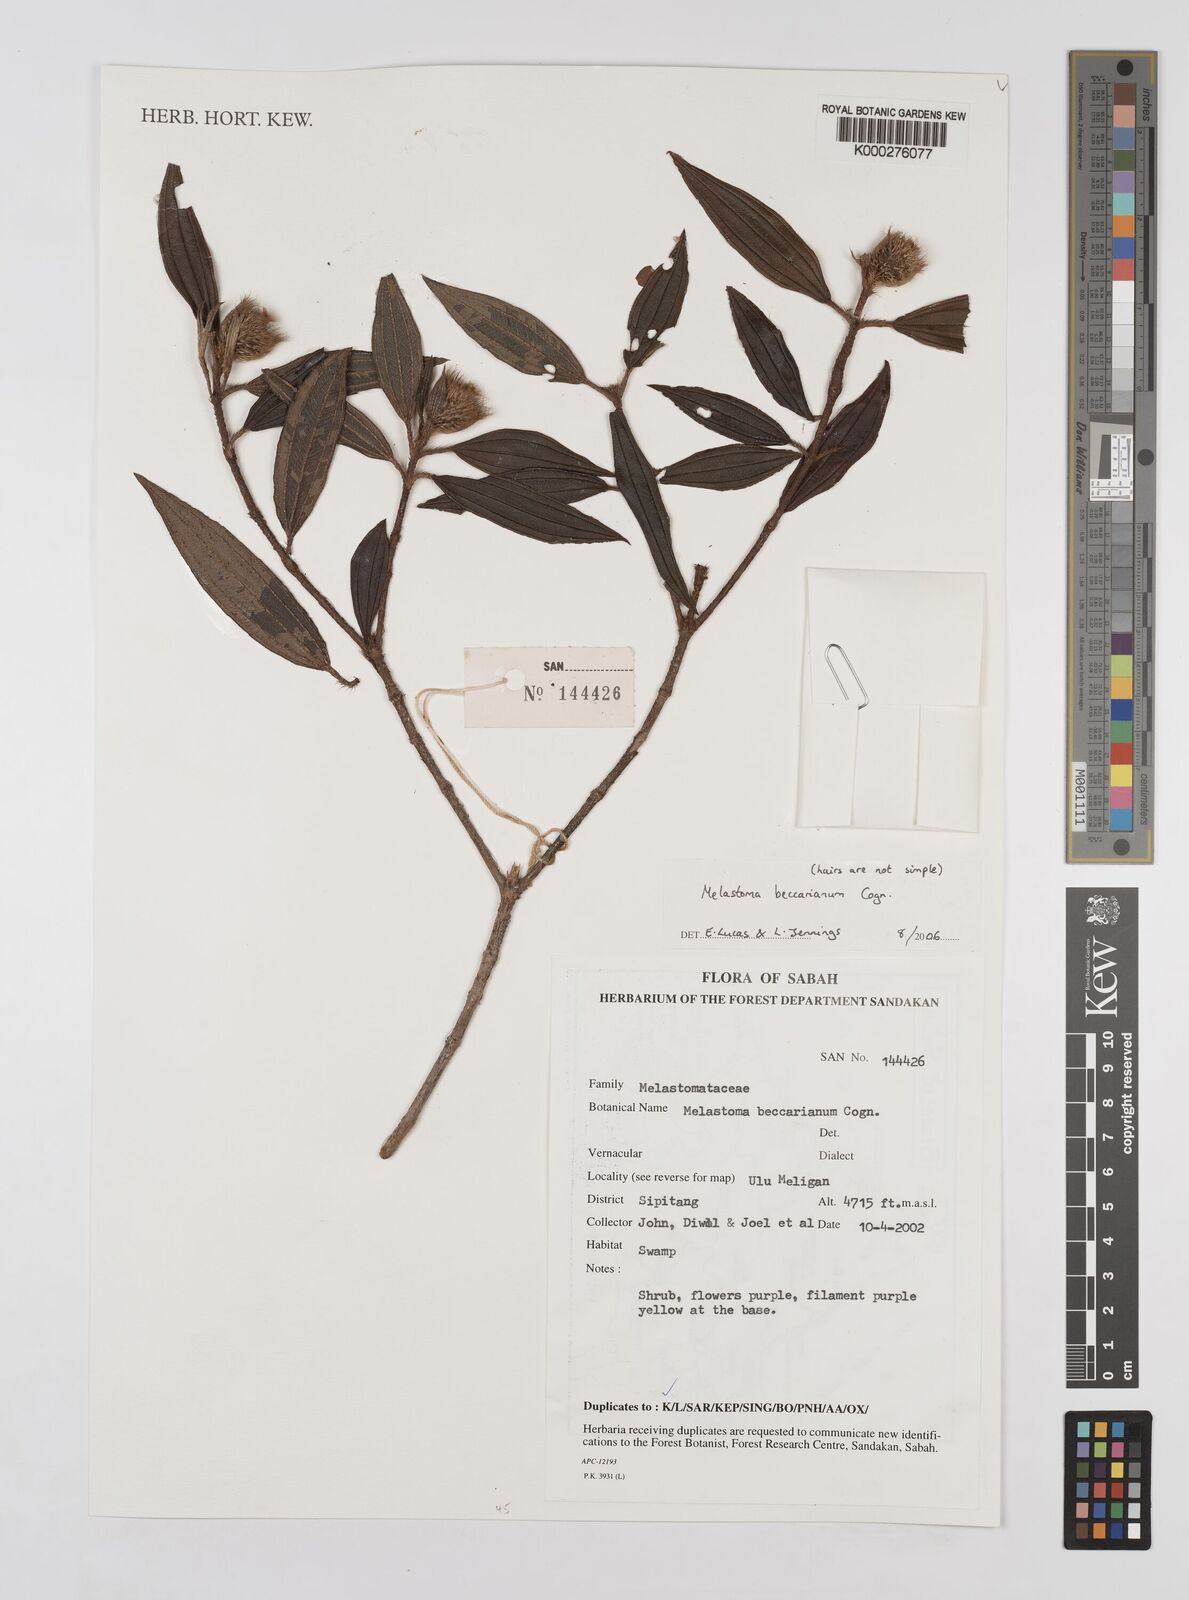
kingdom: Plantae
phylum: Tracheophyta
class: Magnoliopsida
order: Myrtales
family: Melastomataceae
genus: Melastoma
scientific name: Melastoma beccarianum
